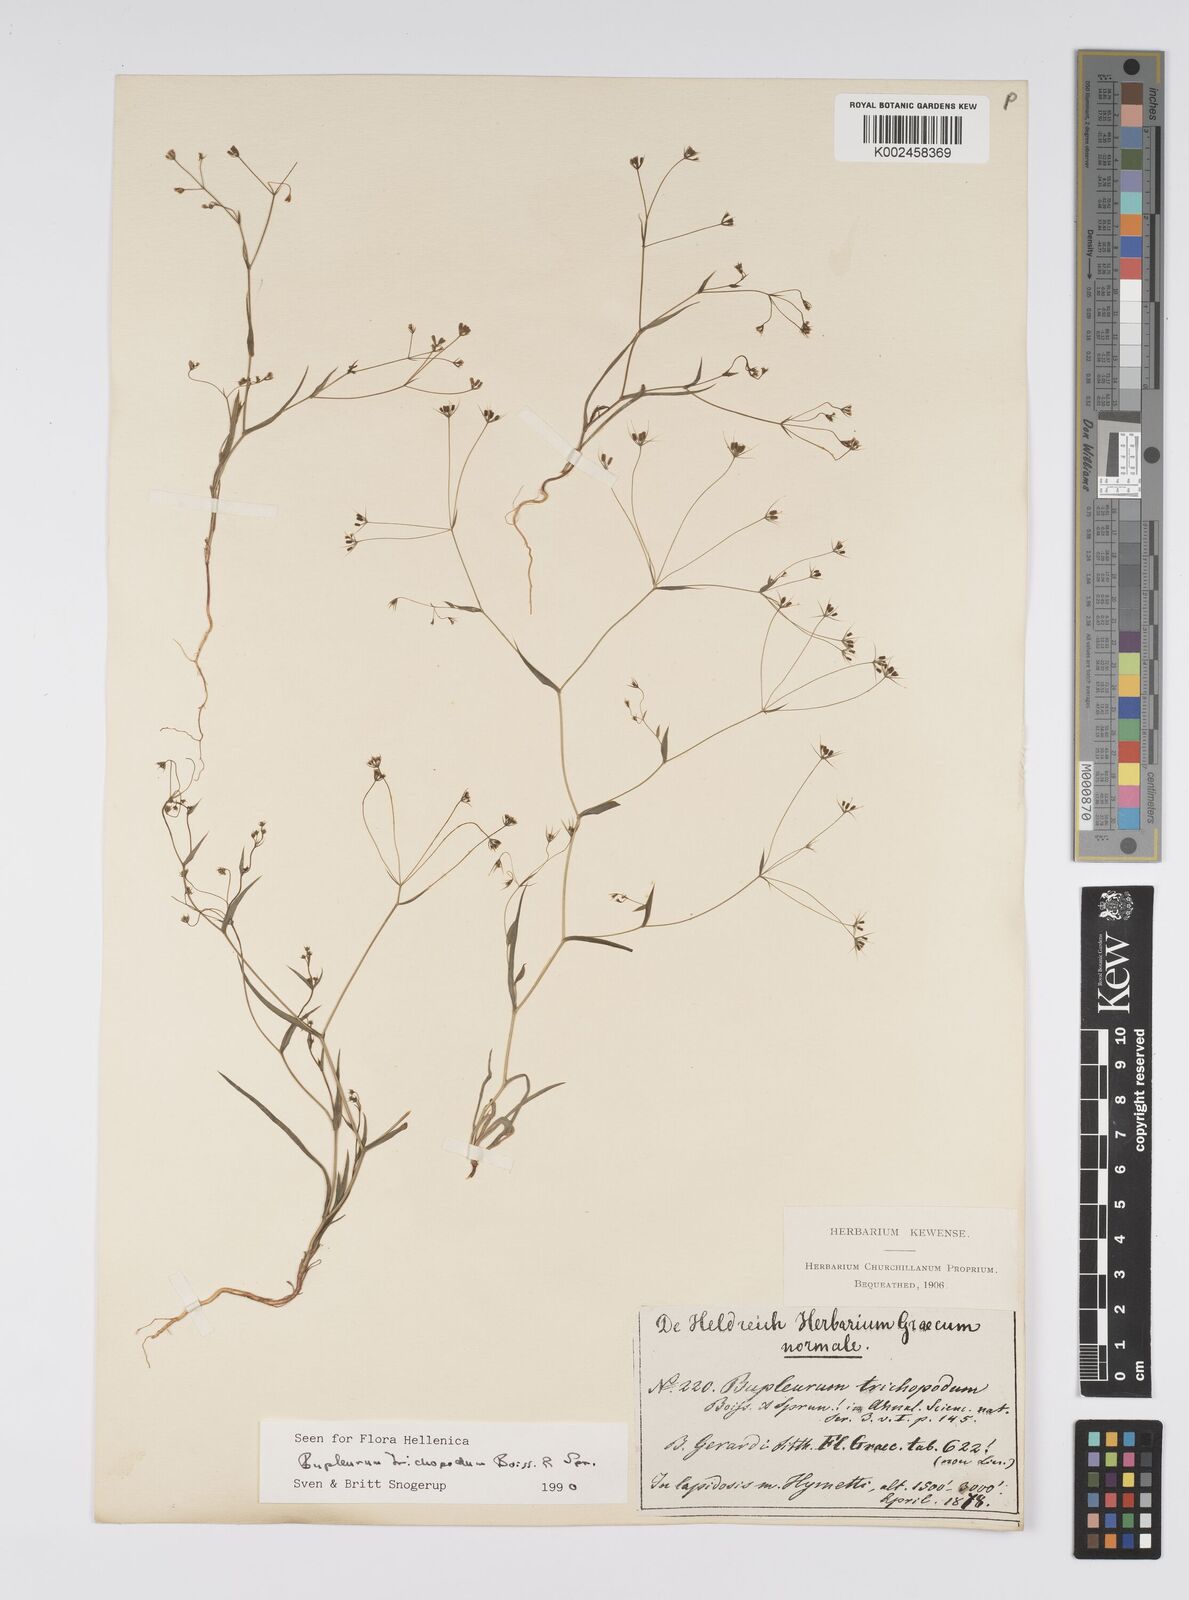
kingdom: Plantae
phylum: Tracheophyta
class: Magnoliopsida
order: Apiales
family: Apiaceae
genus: Bupleurum
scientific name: Bupleurum trichopodum
